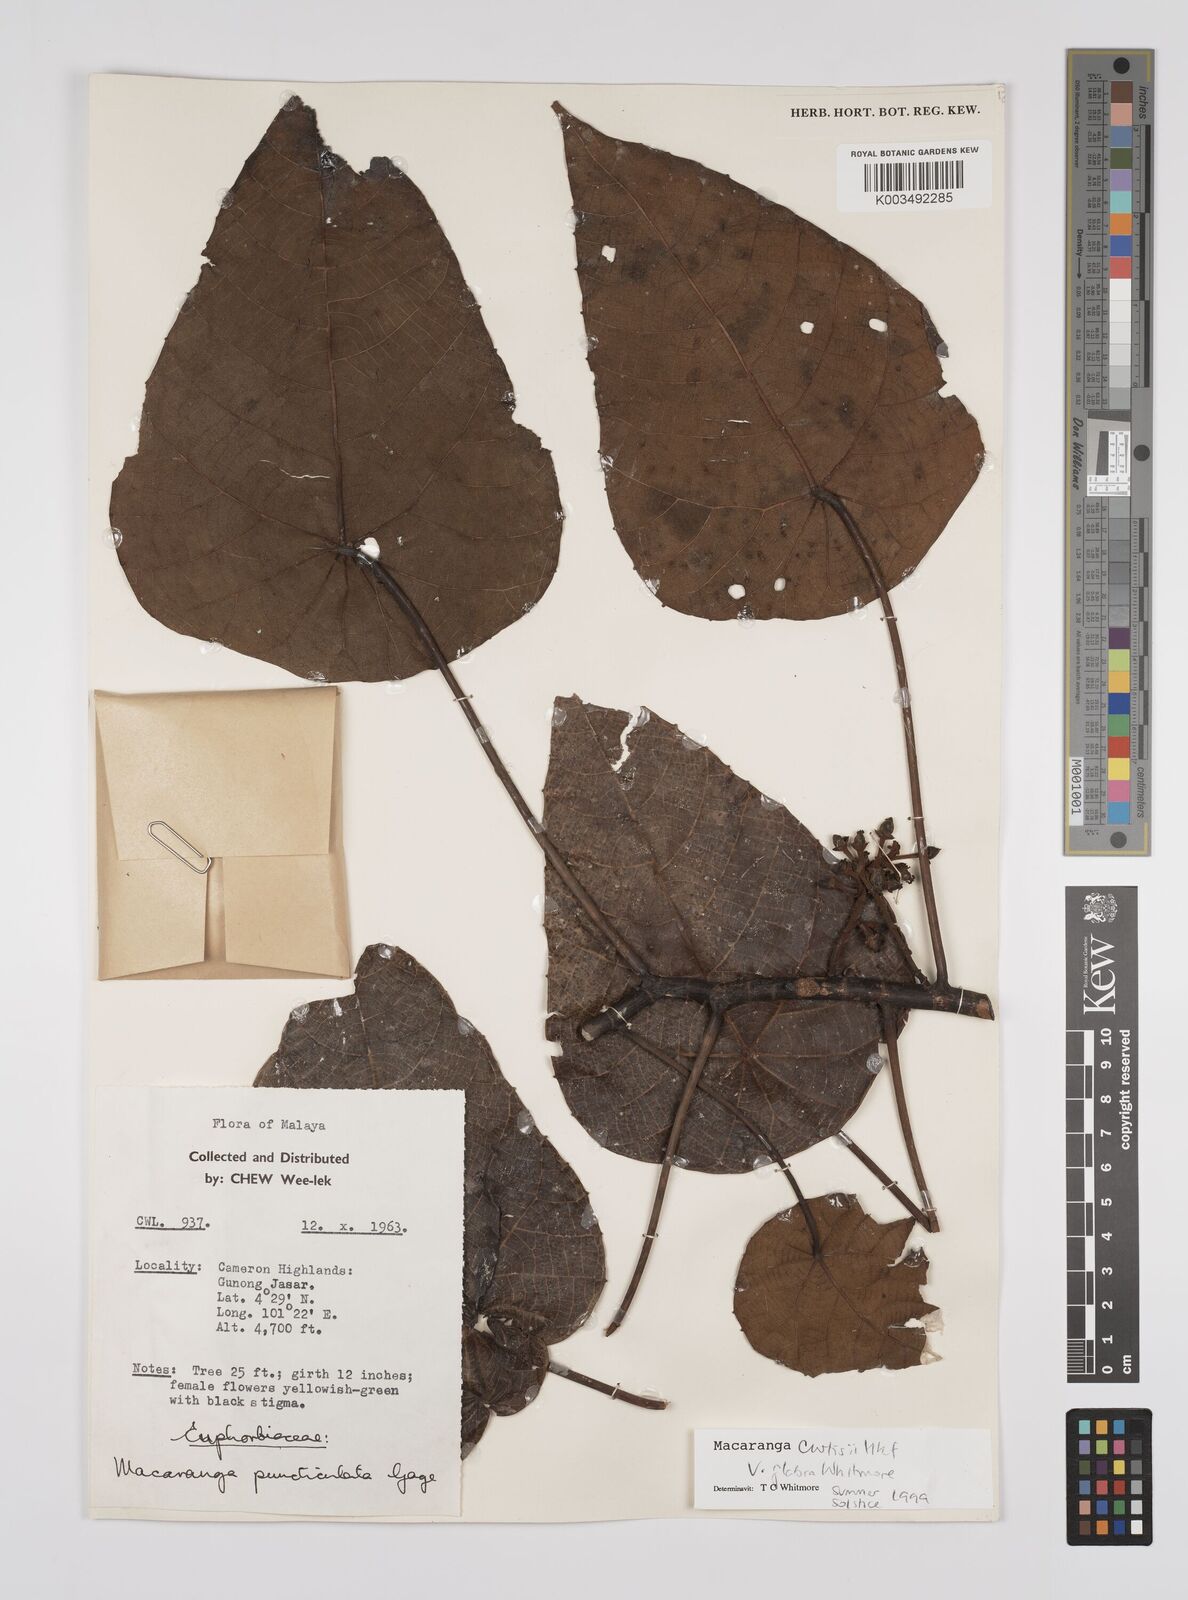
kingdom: Plantae
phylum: Tracheophyta
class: Magnoliopsida
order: Malpighiales
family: Euphorbiaceae
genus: Macaranga
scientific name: Macaranga pachyphylla
